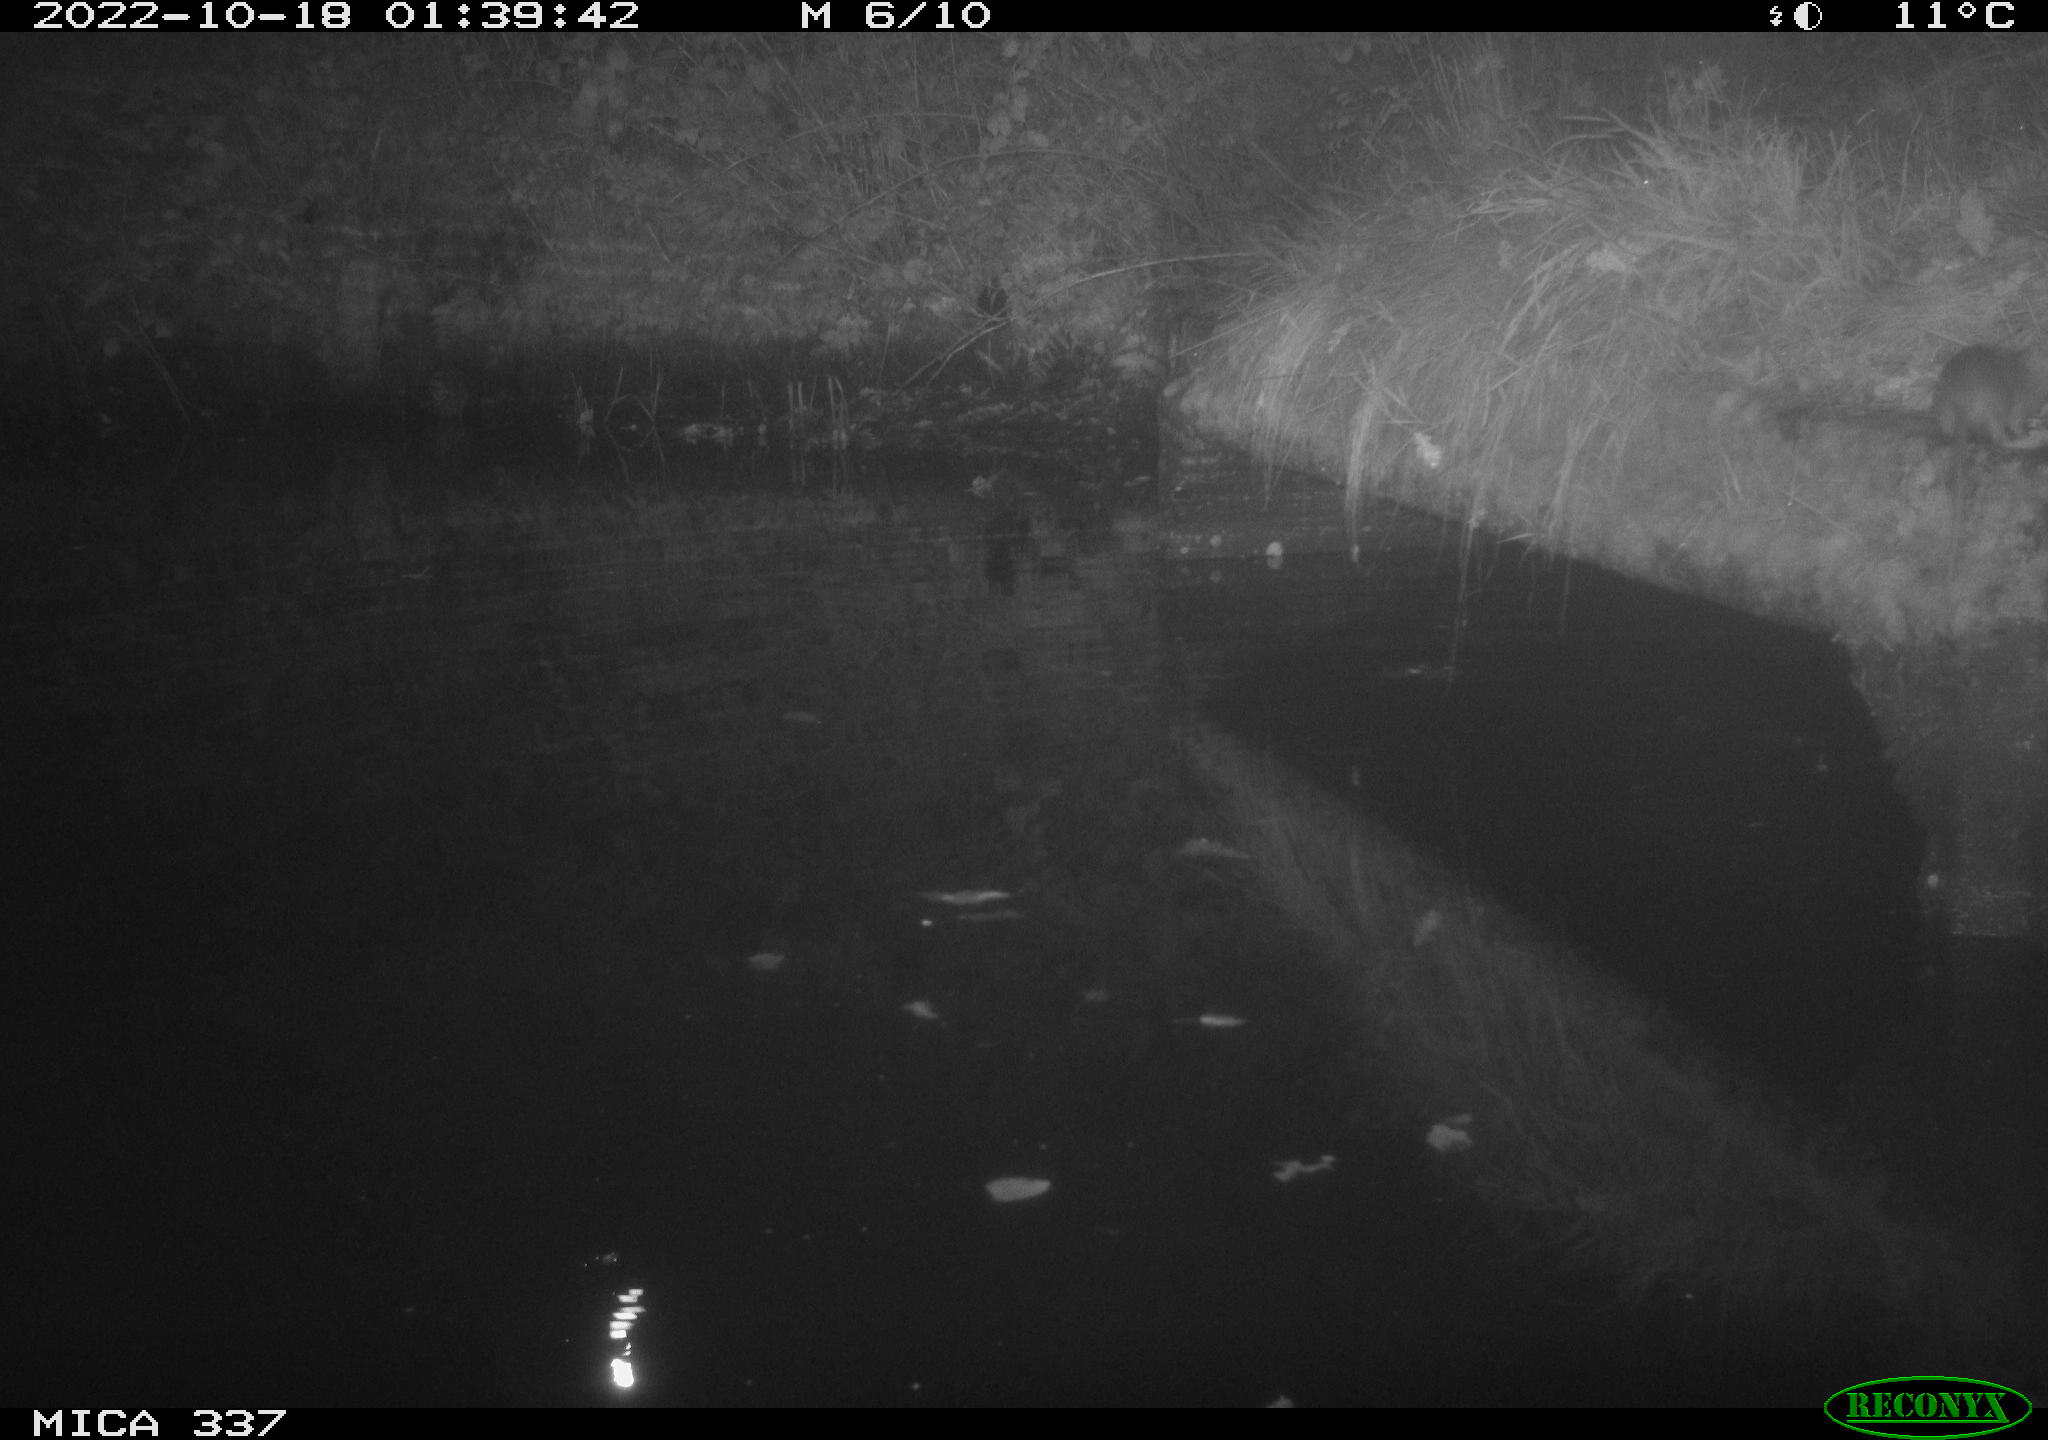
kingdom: Animalia
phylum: Chordata
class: Mammalia
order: Rodentia
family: Muridae
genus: Rattus
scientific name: Rattus norvegicus
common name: Brown rat
